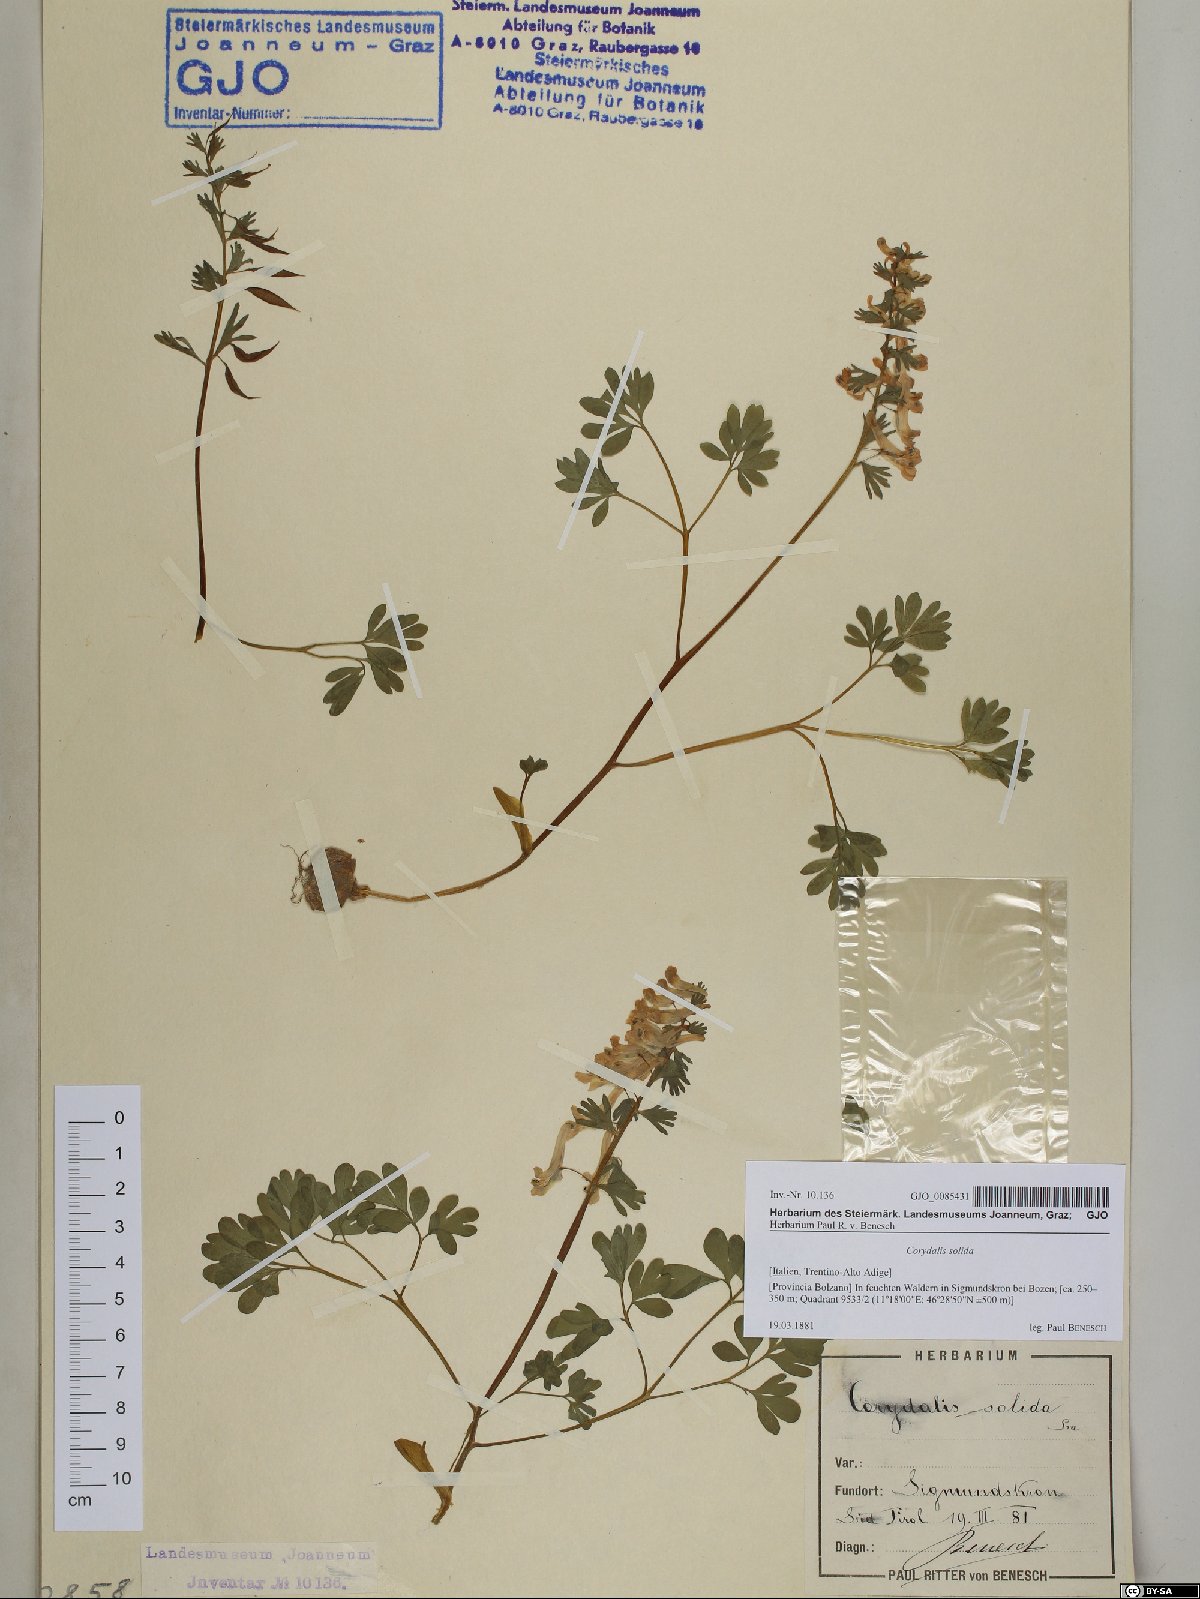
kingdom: Plantae
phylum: Tracheophyta
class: Magnoliopsida
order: Ranunculales
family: Papaveraceae
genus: Corydalis
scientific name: Corydalis solida
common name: Bird-in-a-bush
